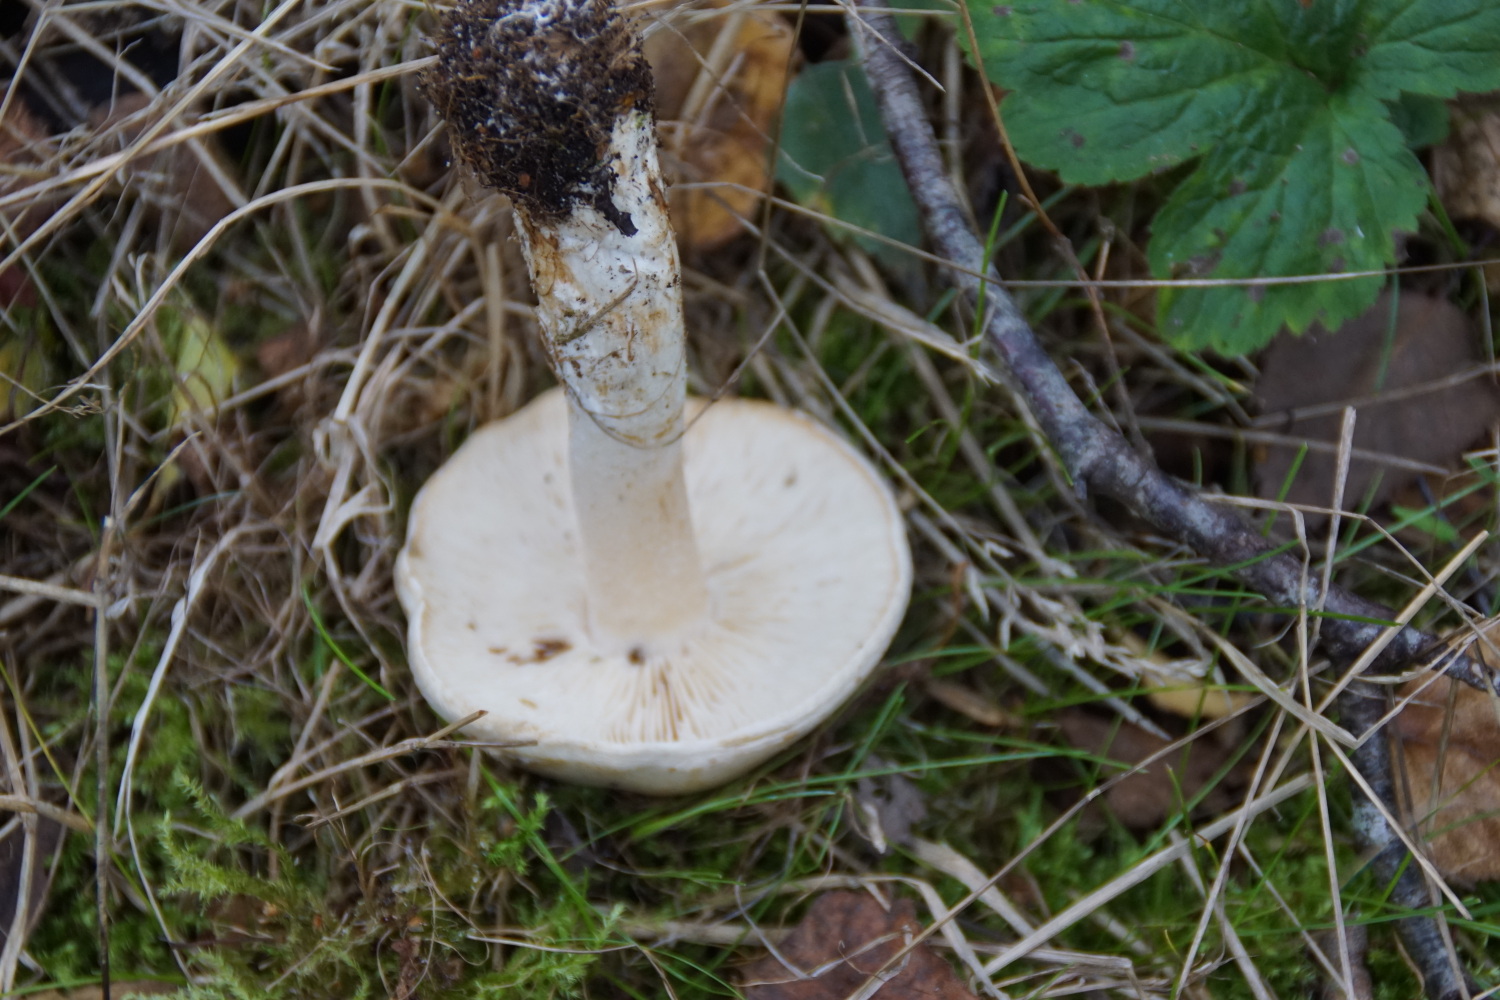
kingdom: Fungi
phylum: Basidiomycota
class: Agaricomycetes
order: Agaricales
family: Tricholomataceae
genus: Tricholoma
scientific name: Tricholoma stiparophyllum
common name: hvid ridderhat
